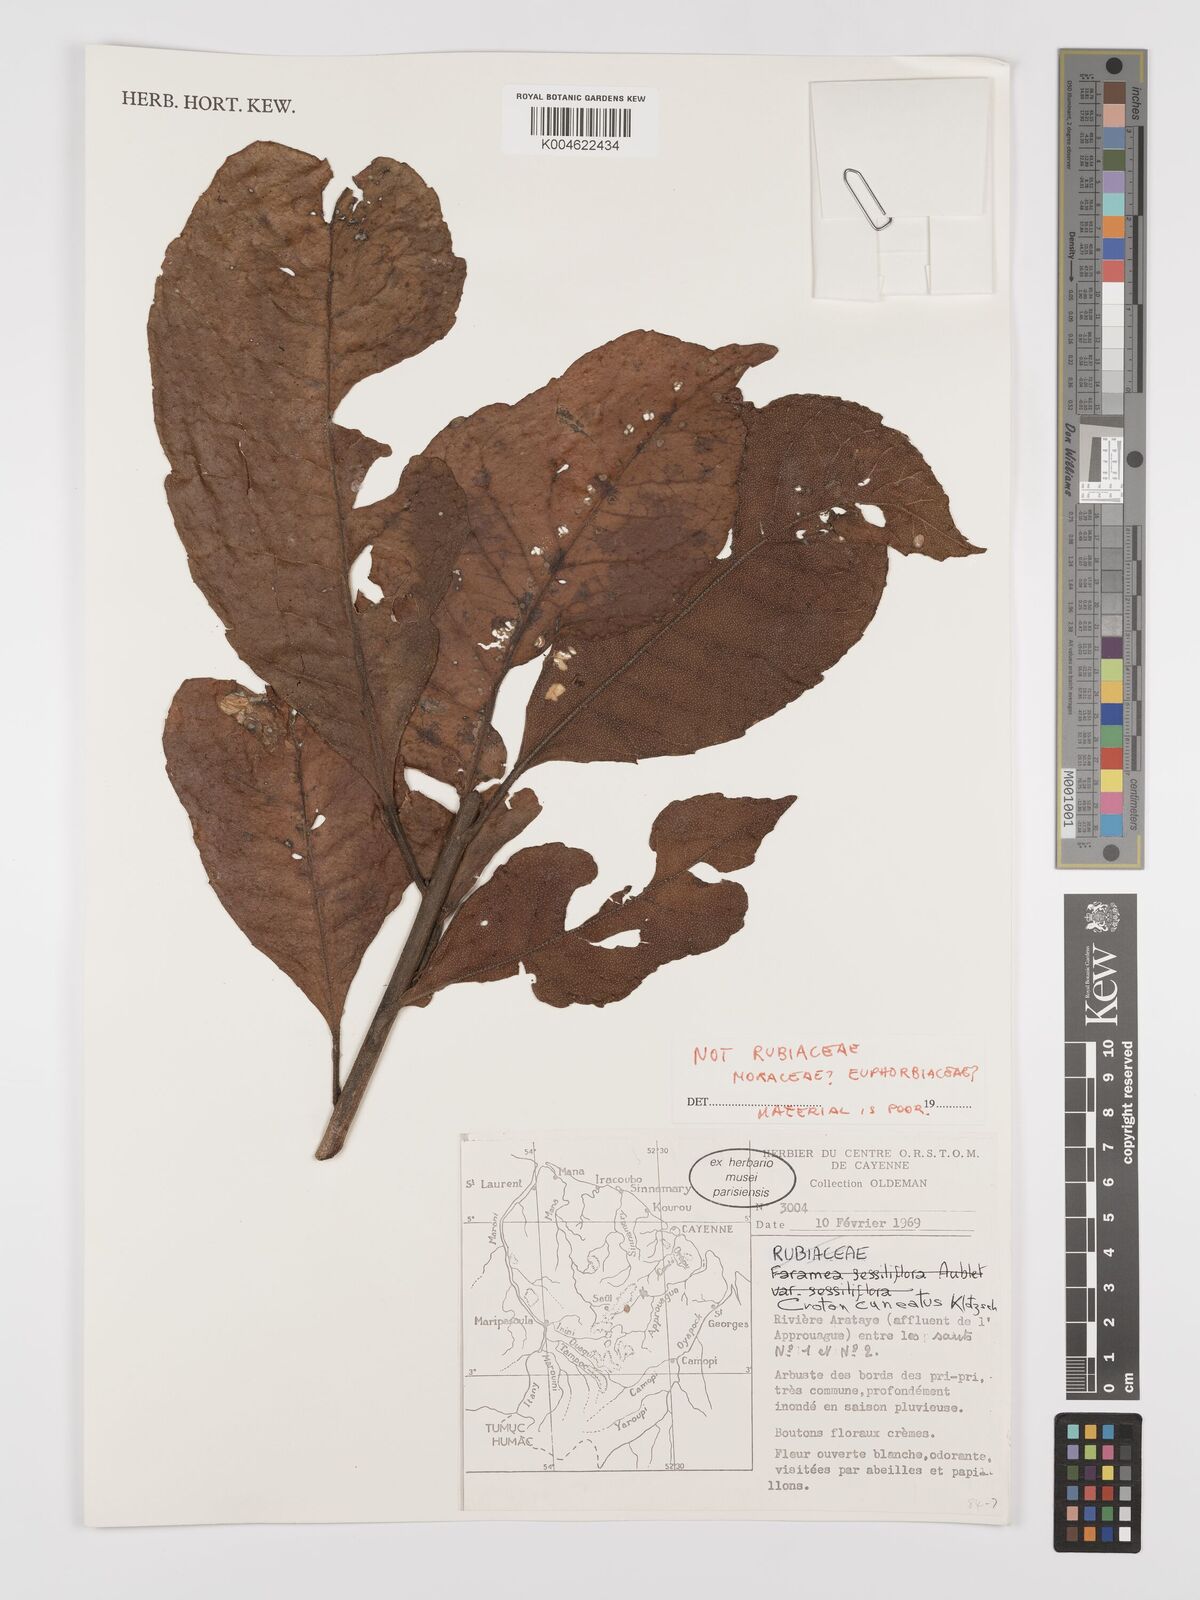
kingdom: Plantae
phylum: Tracheophyta
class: Magnoliopsida
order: Malpighiales
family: Euphorbiaceae
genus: Croton
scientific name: Croton
